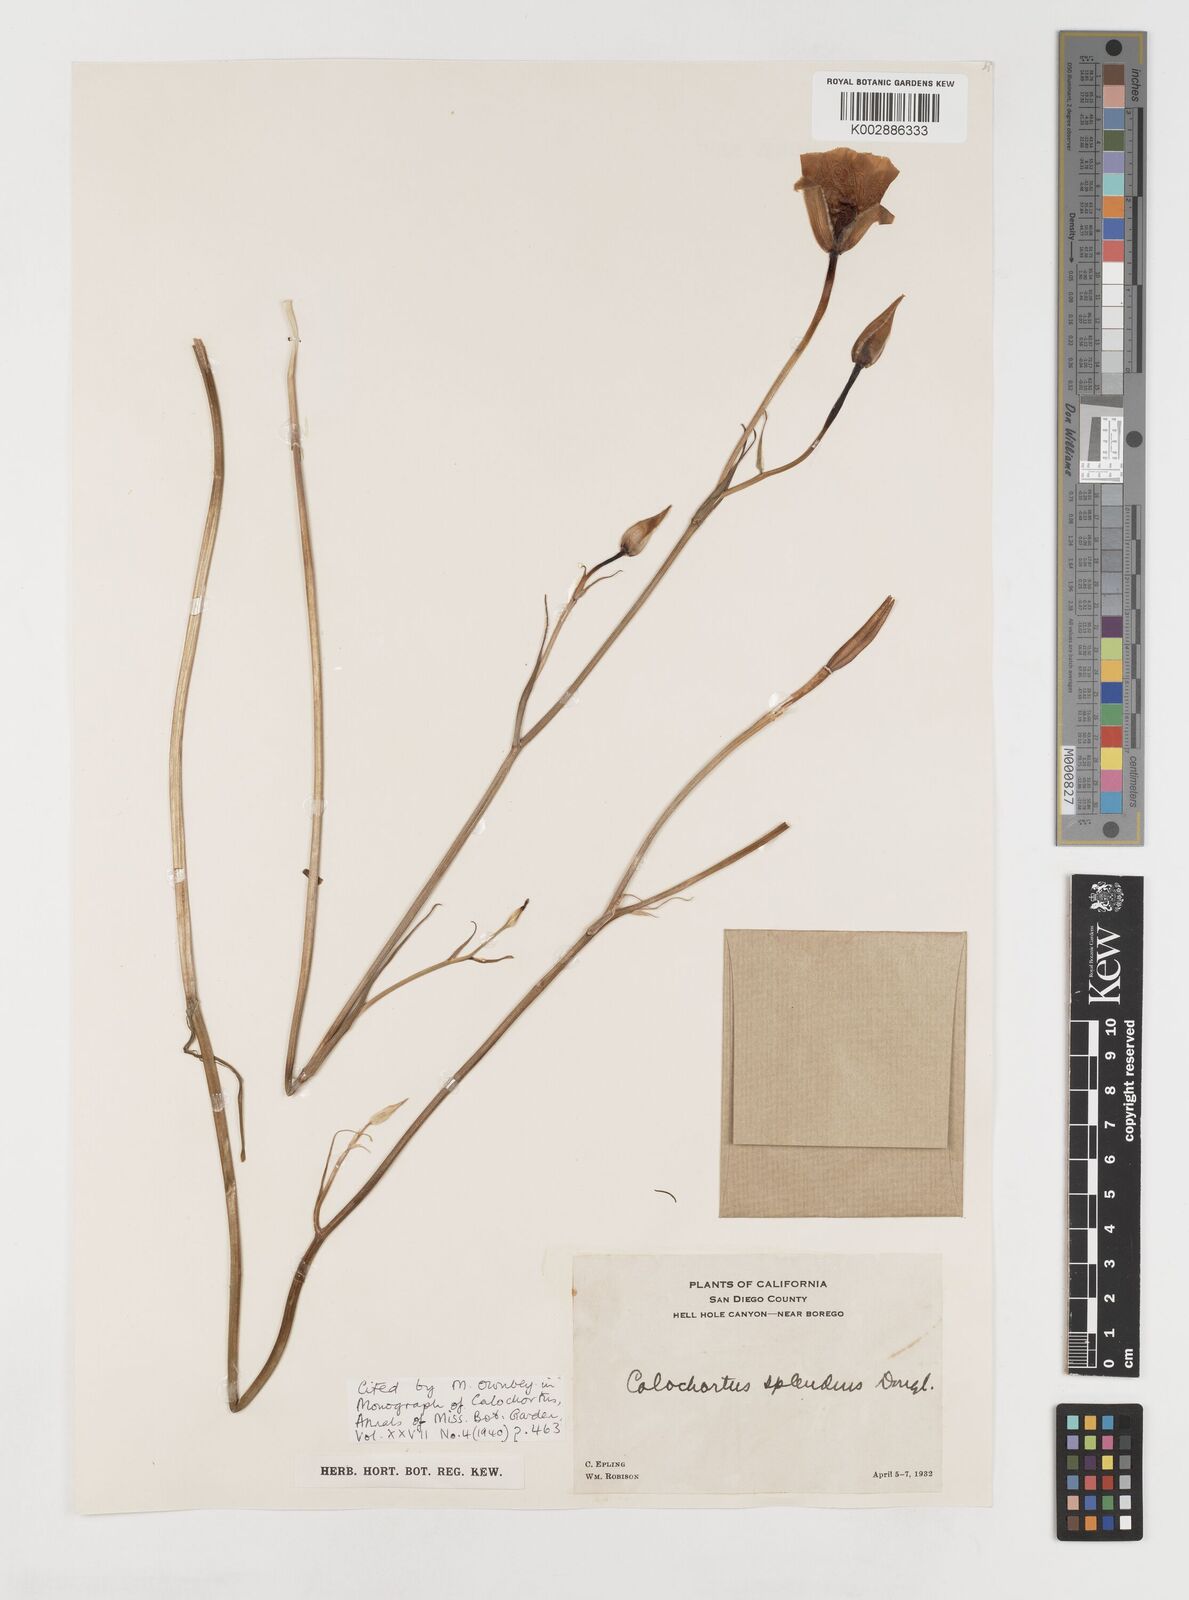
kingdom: Plantae
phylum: Tracheophyta
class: Liliopsida
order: Liliales
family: Liliaceae
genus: Calochortus
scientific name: Calochortus splendens
